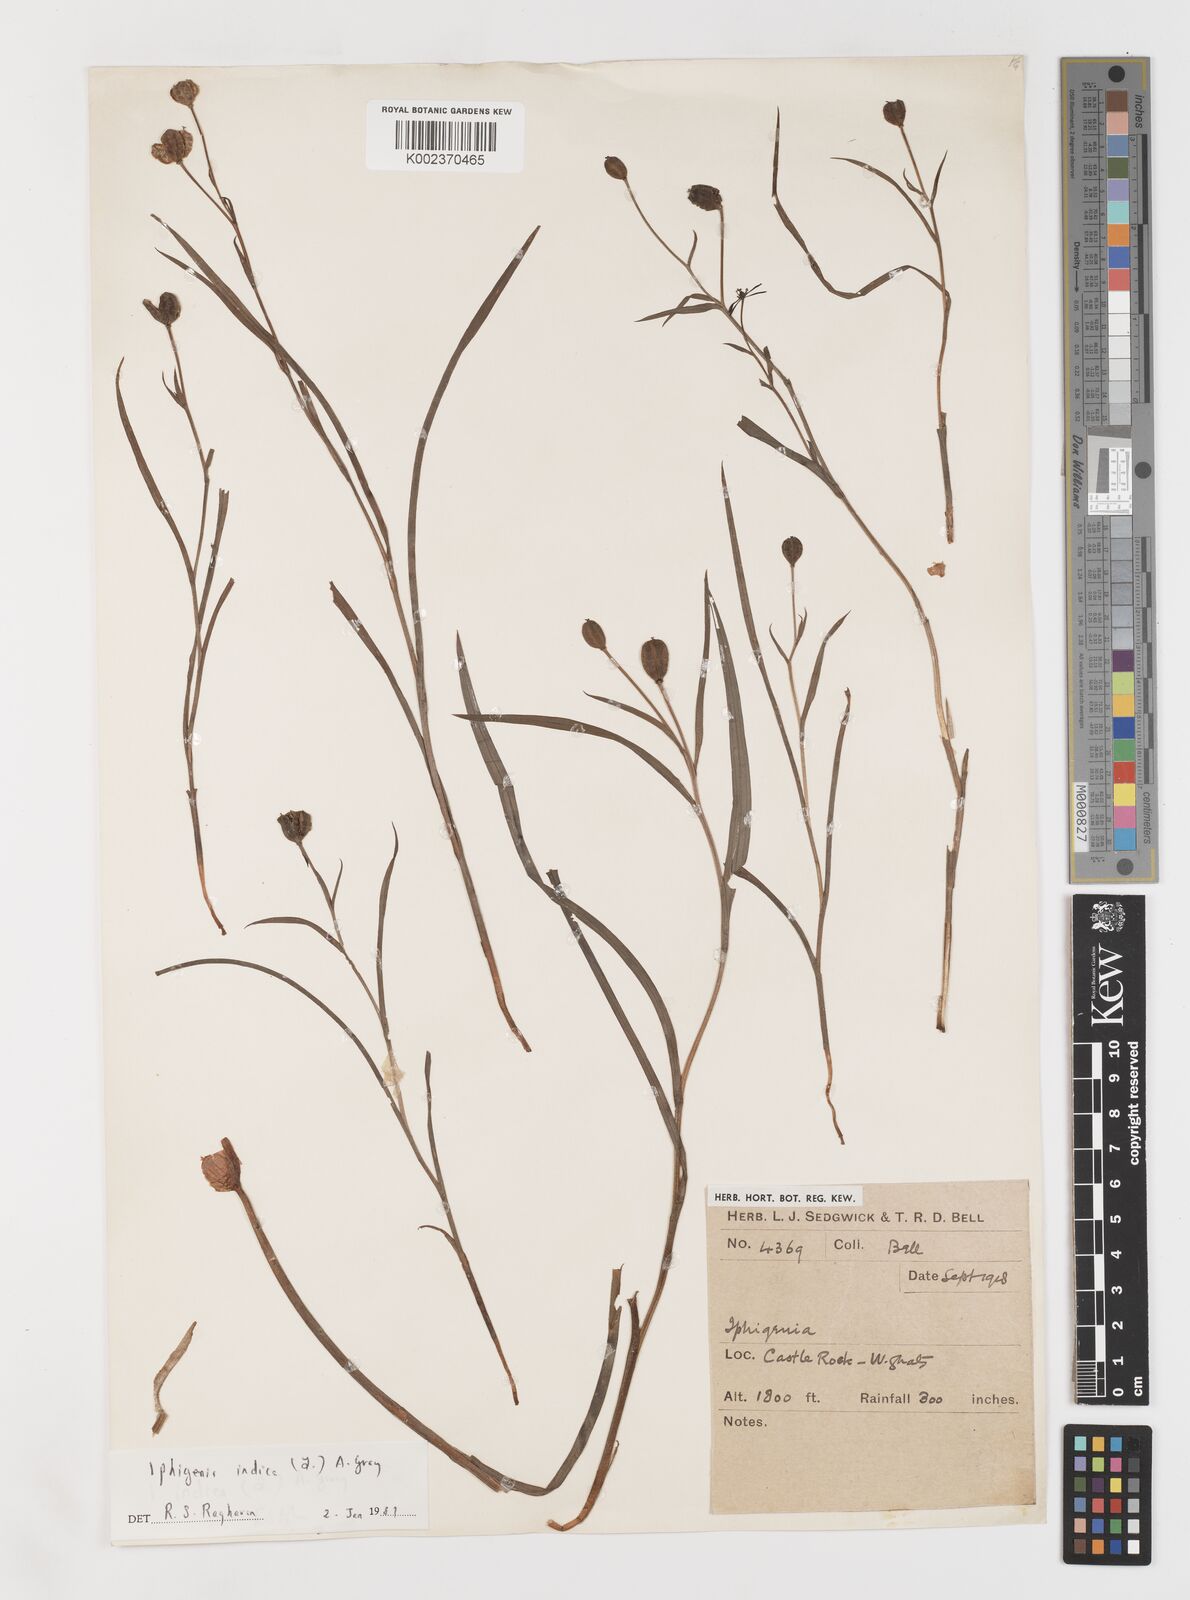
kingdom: Plantae
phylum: Tracheophyta
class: Liliopsida
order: Liliales
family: Colchicaceae
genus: Iphigenia
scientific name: Iphigenia indica
